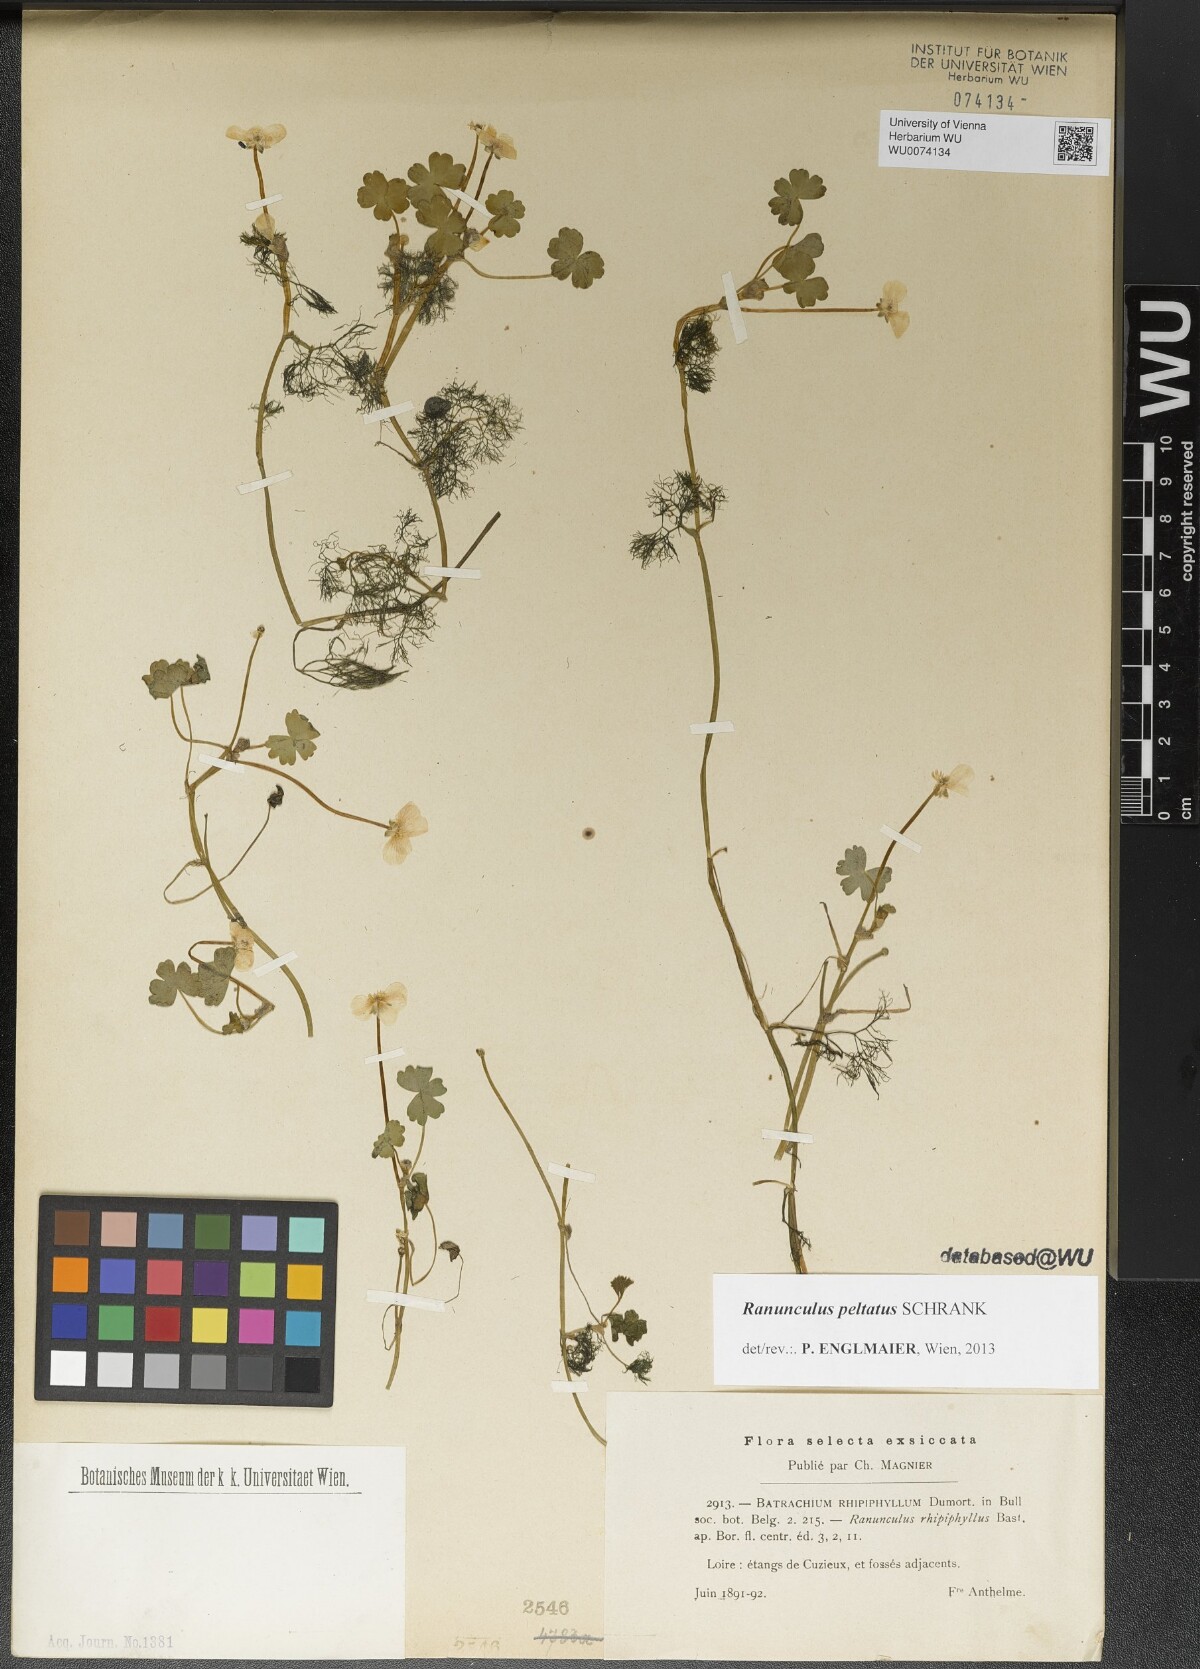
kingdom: Plantae
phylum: Tracheophyta
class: Magnoliopsida
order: Ranunculales
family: Ranunculaceae
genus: Ranunculus
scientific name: Ranunculus peltatus
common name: Pond water-crowfoot
